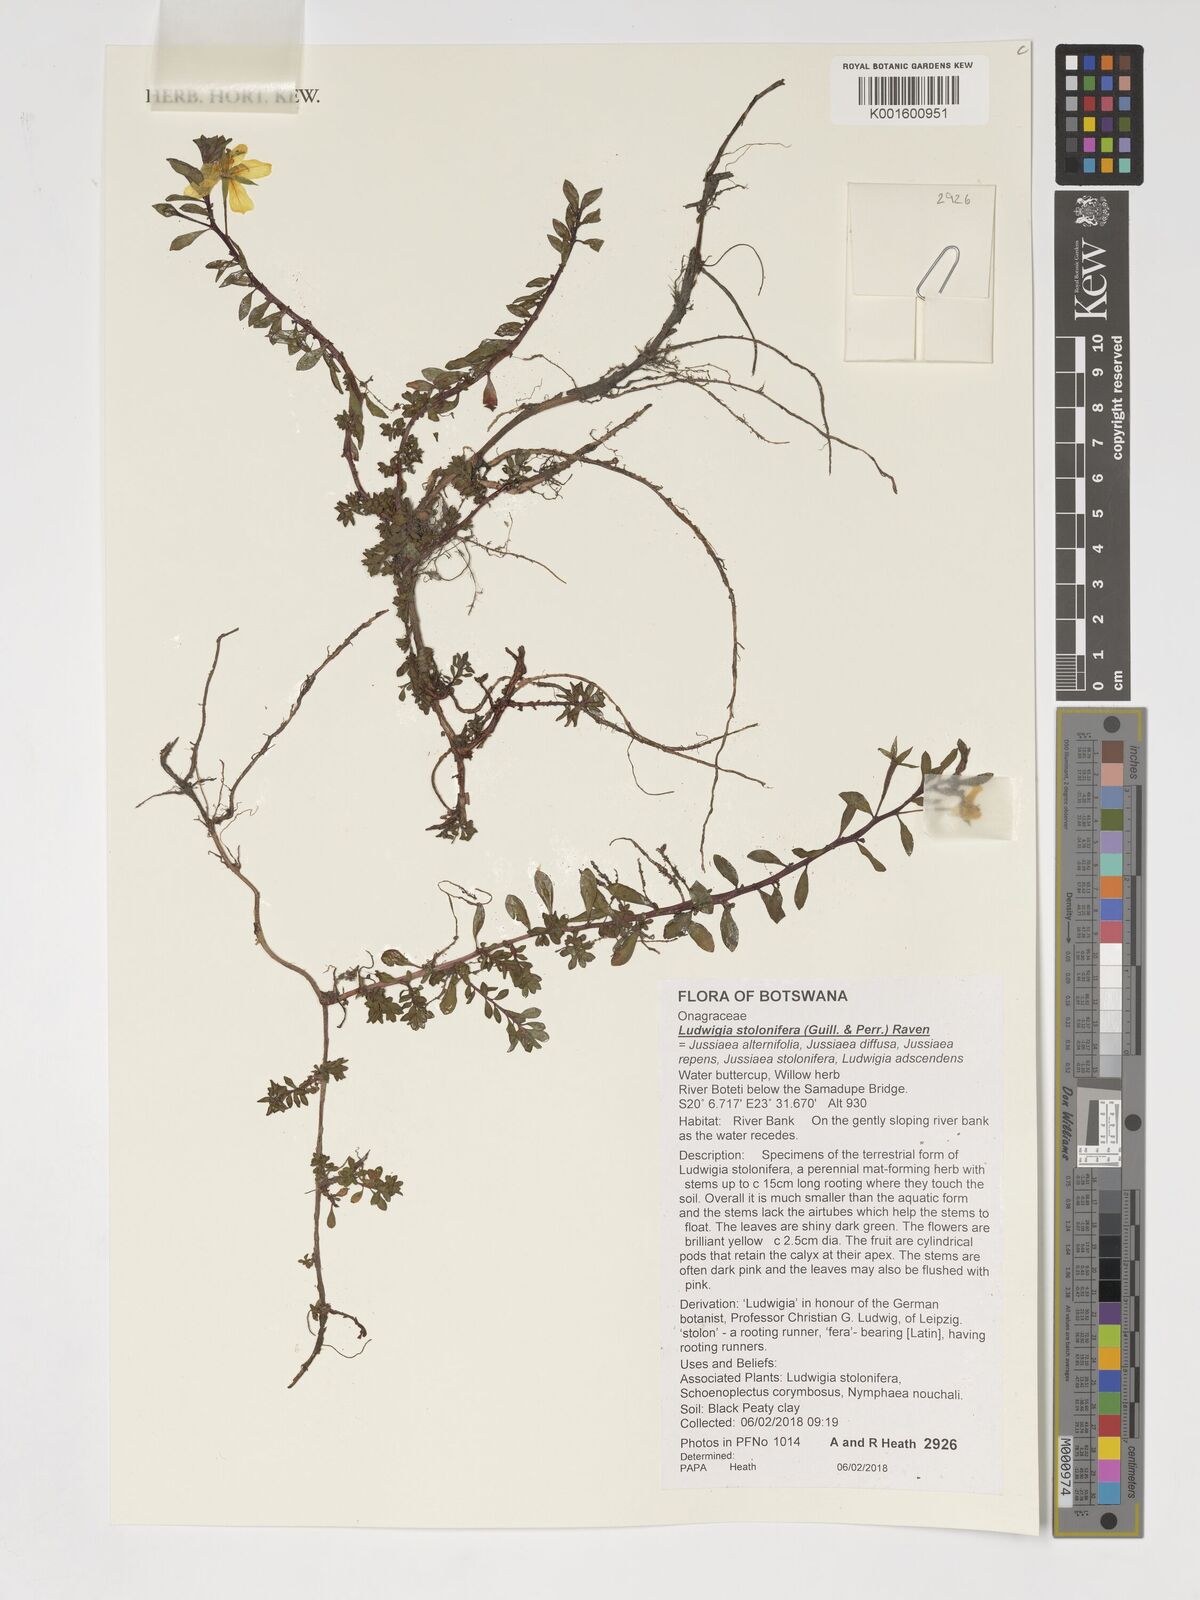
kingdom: Plantae
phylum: Tracheophyta
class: Magnoliopsida
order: Myrtales
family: Onagraceae
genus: Ludwigia
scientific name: Ludwigia adscendens
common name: Creeping water primrose
